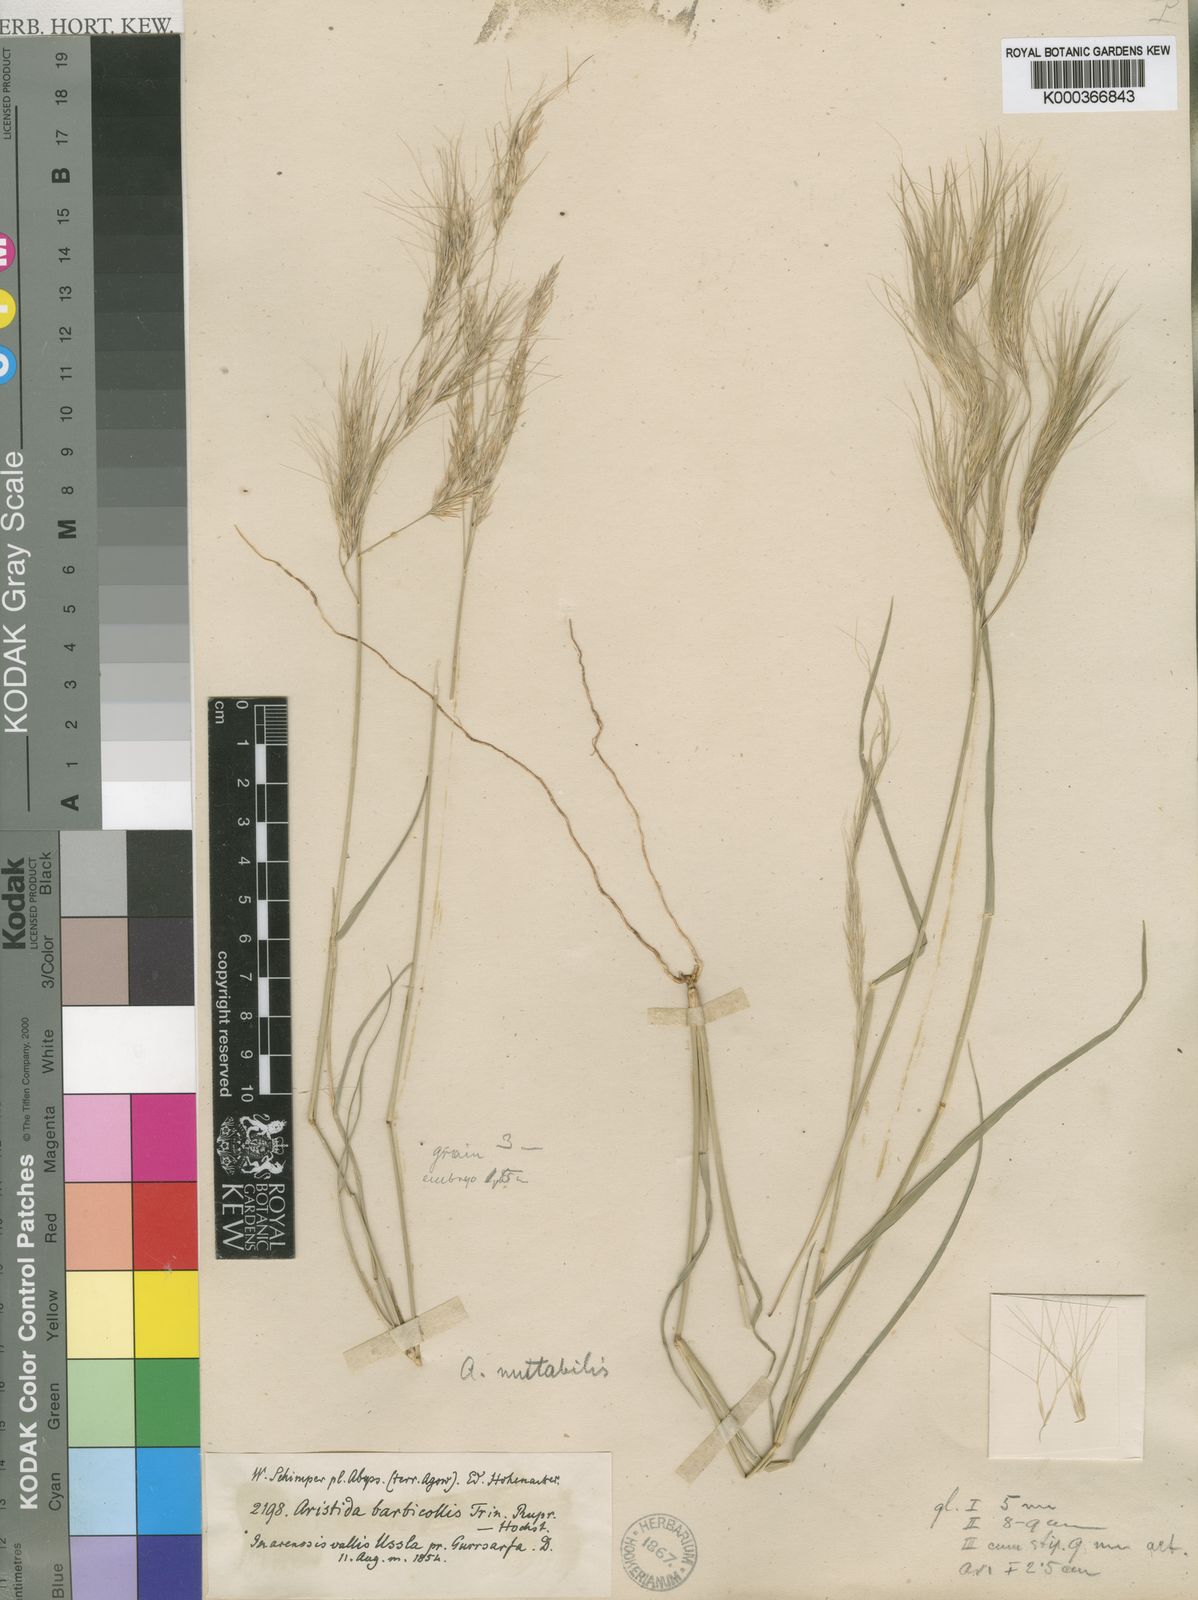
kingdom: Plantae
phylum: Tracheophyta
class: Liliopsida
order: Poales
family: Poaceae
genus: Aristida
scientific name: Aristida mutabilis
